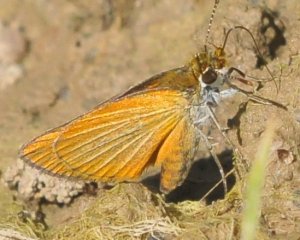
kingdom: Animalia
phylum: Arthropoda
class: Insecta
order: Lepidoptera
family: Hesperiidae
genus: Ancyloxypha
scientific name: Ancyloxypha numitor
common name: Least Skipper
